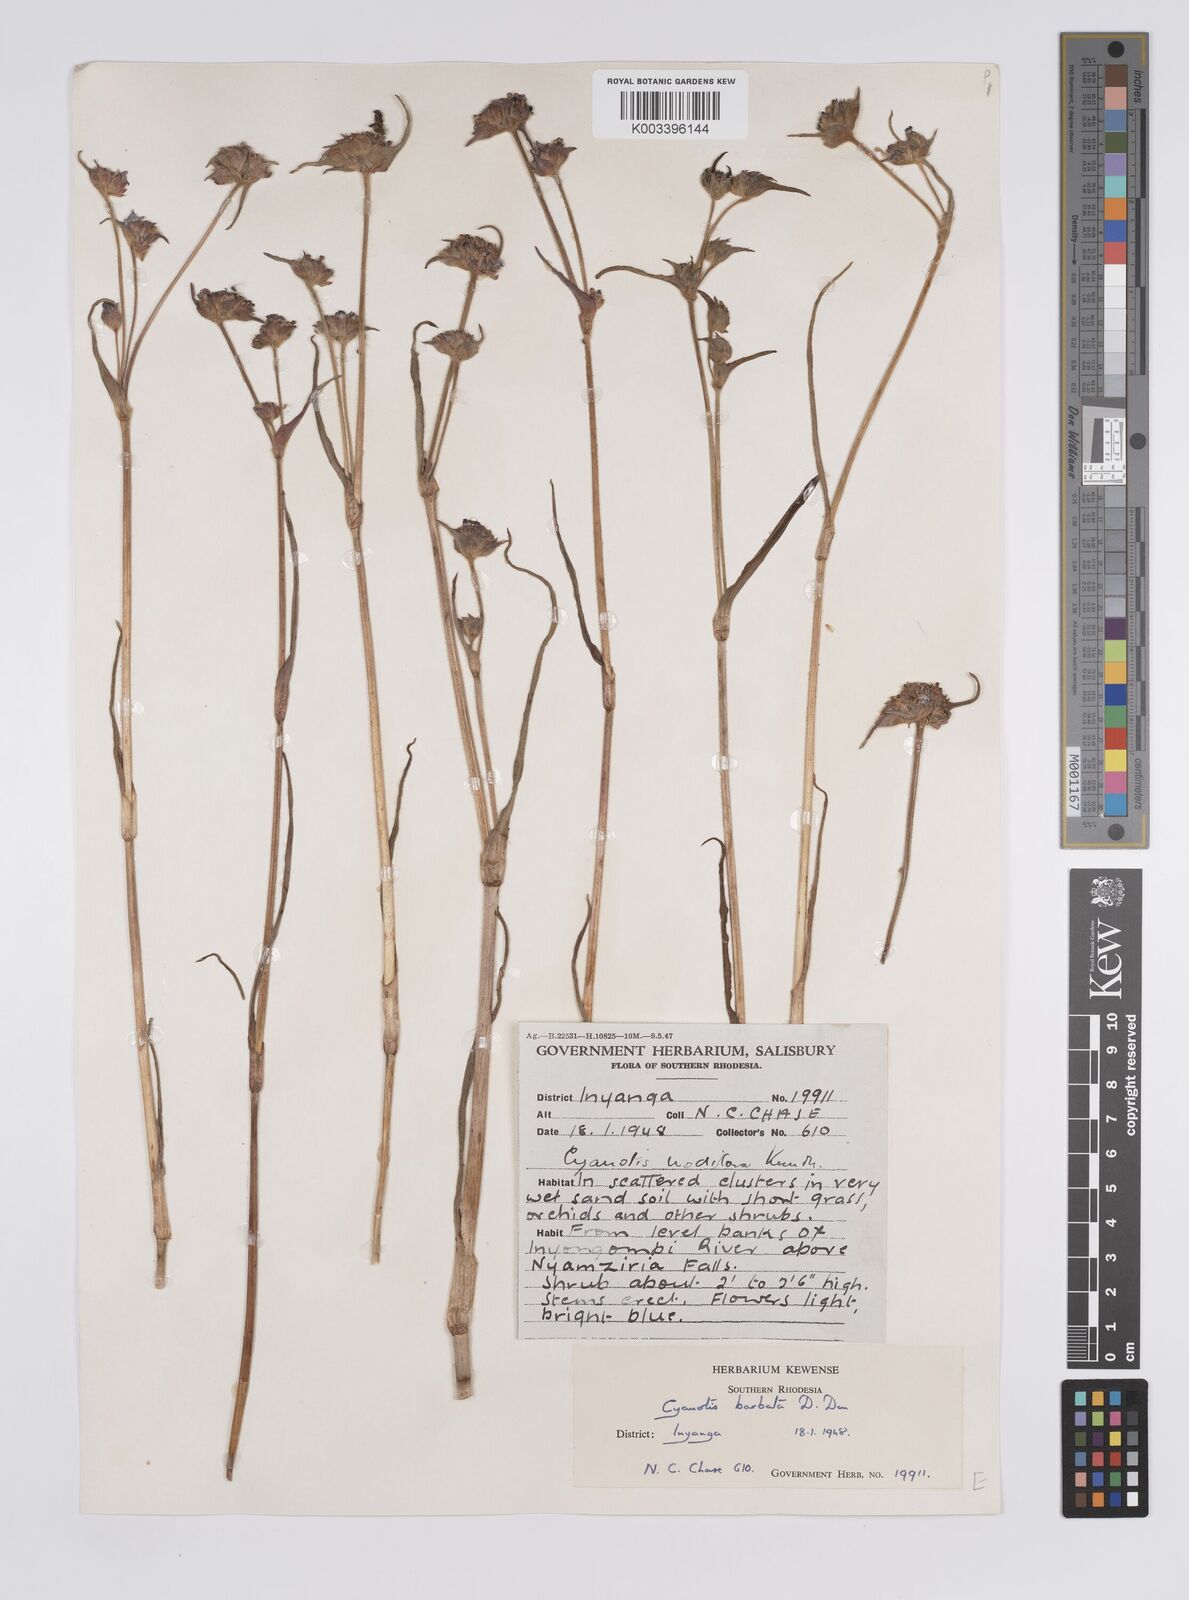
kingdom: Plantae
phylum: Tracheophyta
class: Liliopsida
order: Commelinales
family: Commelinaceae
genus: Cyanotis
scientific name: Cyanotis vaga
